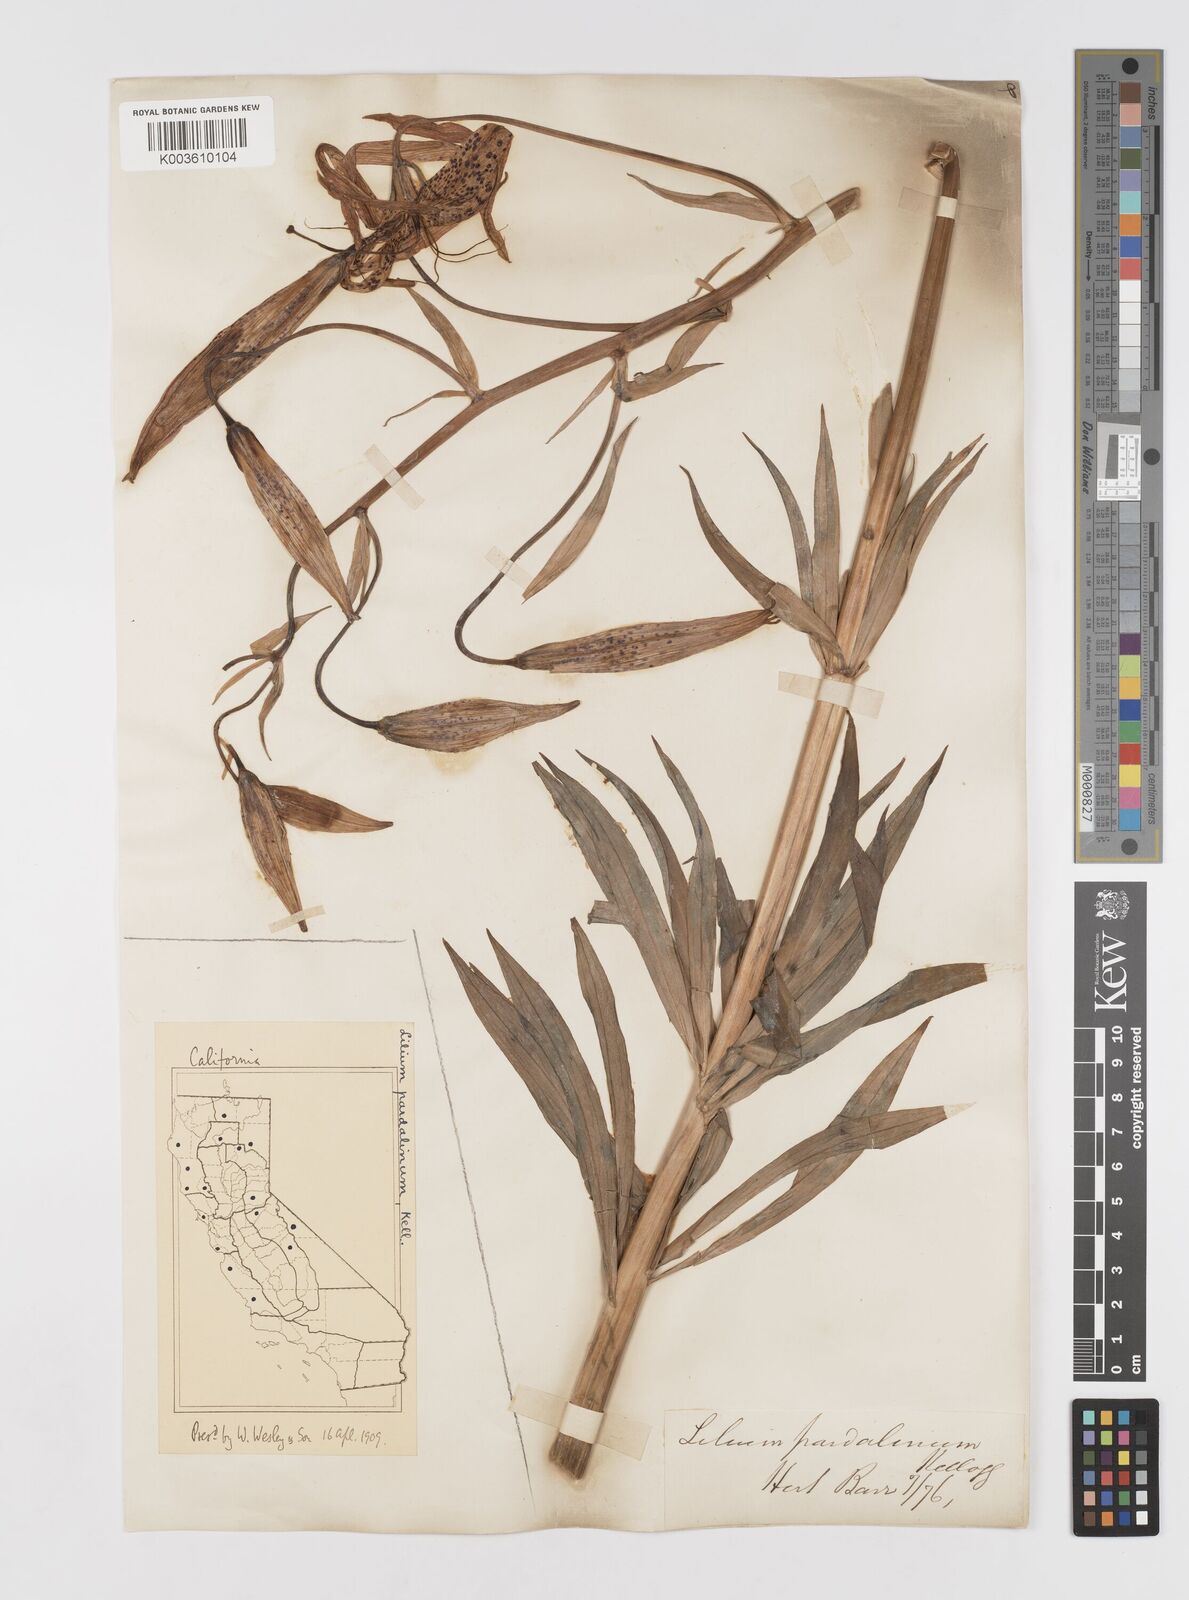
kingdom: Plantae
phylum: Tracheophyta
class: Liliopsida
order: Liliales
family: Liliaceae
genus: Lilium
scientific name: Lilium pardalinum
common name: Panther lily
